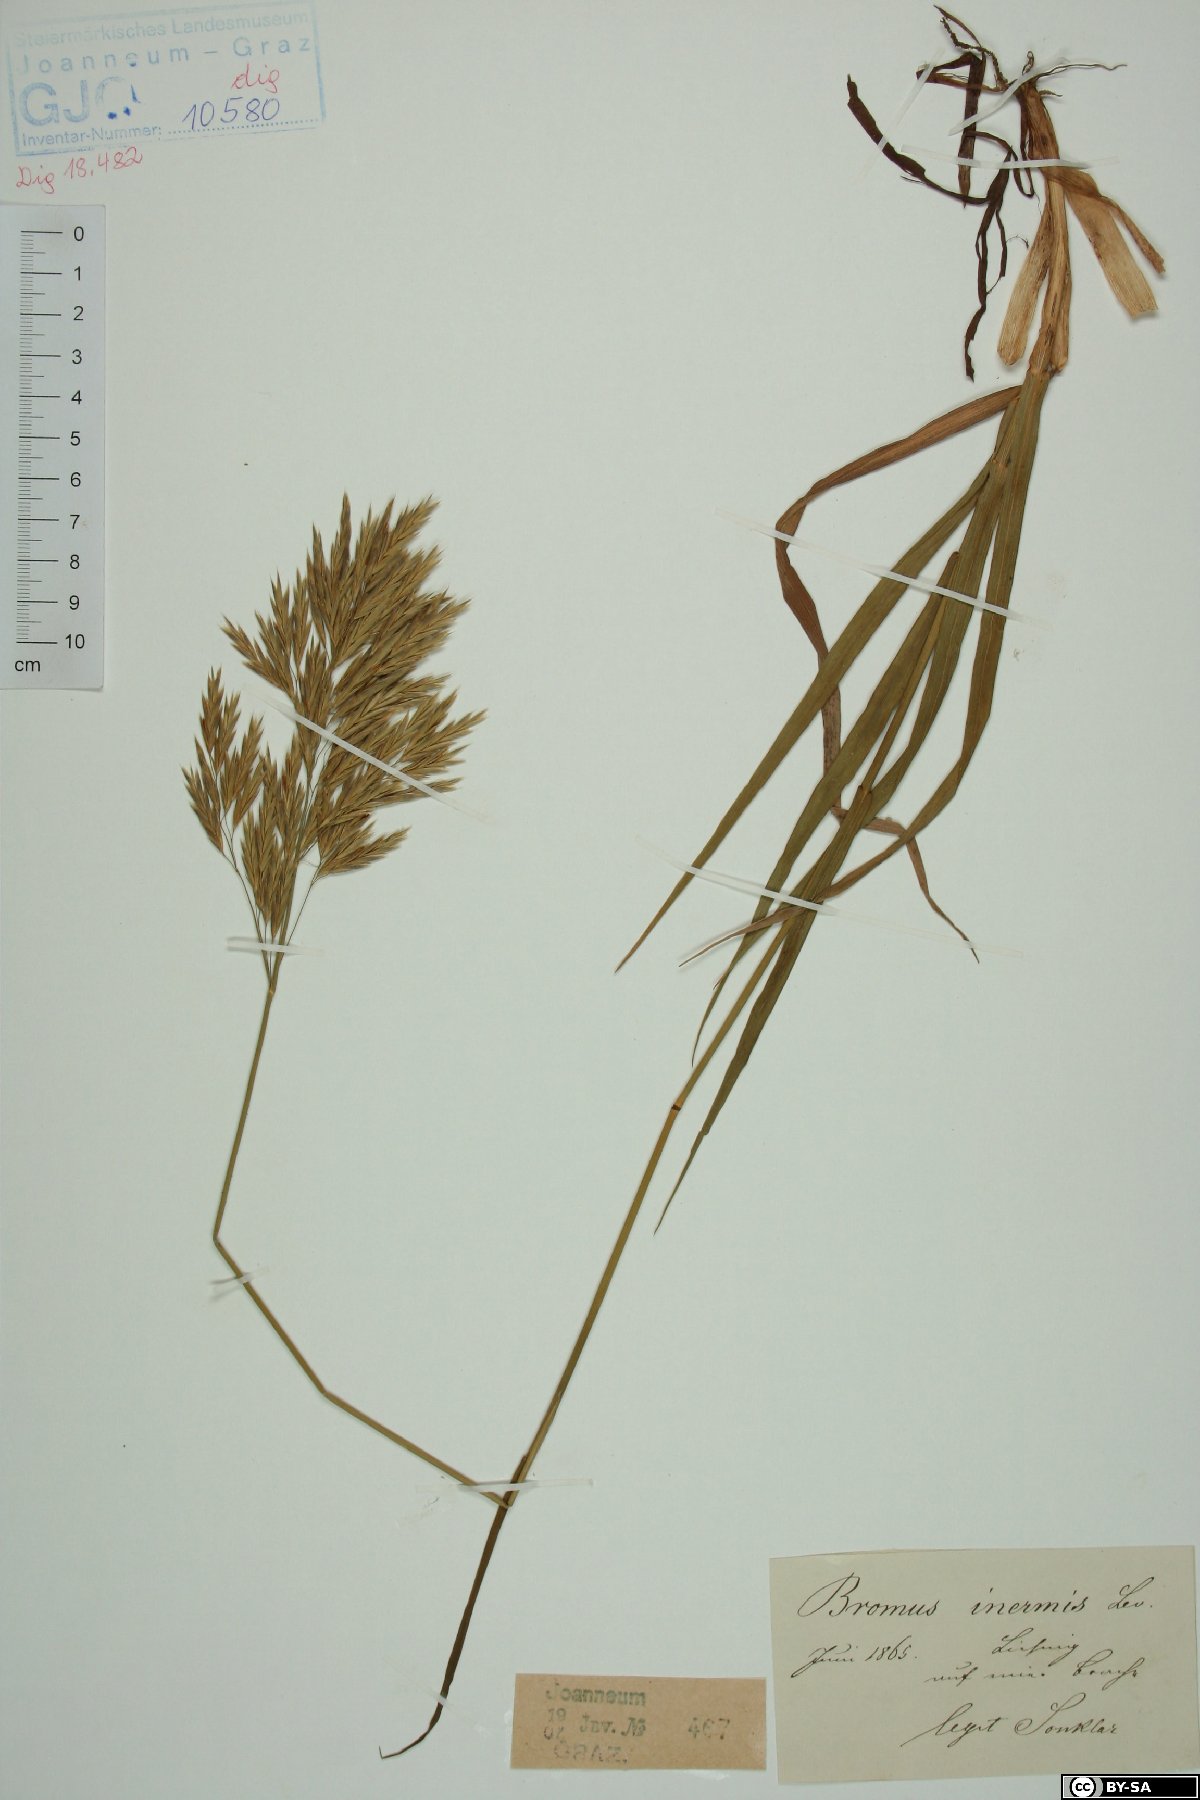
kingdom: Plantae
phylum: Tracheophyta
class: Liliopsida
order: Poales
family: Poaceae
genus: Bromus
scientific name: Bromus inermis
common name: Smooth brome
